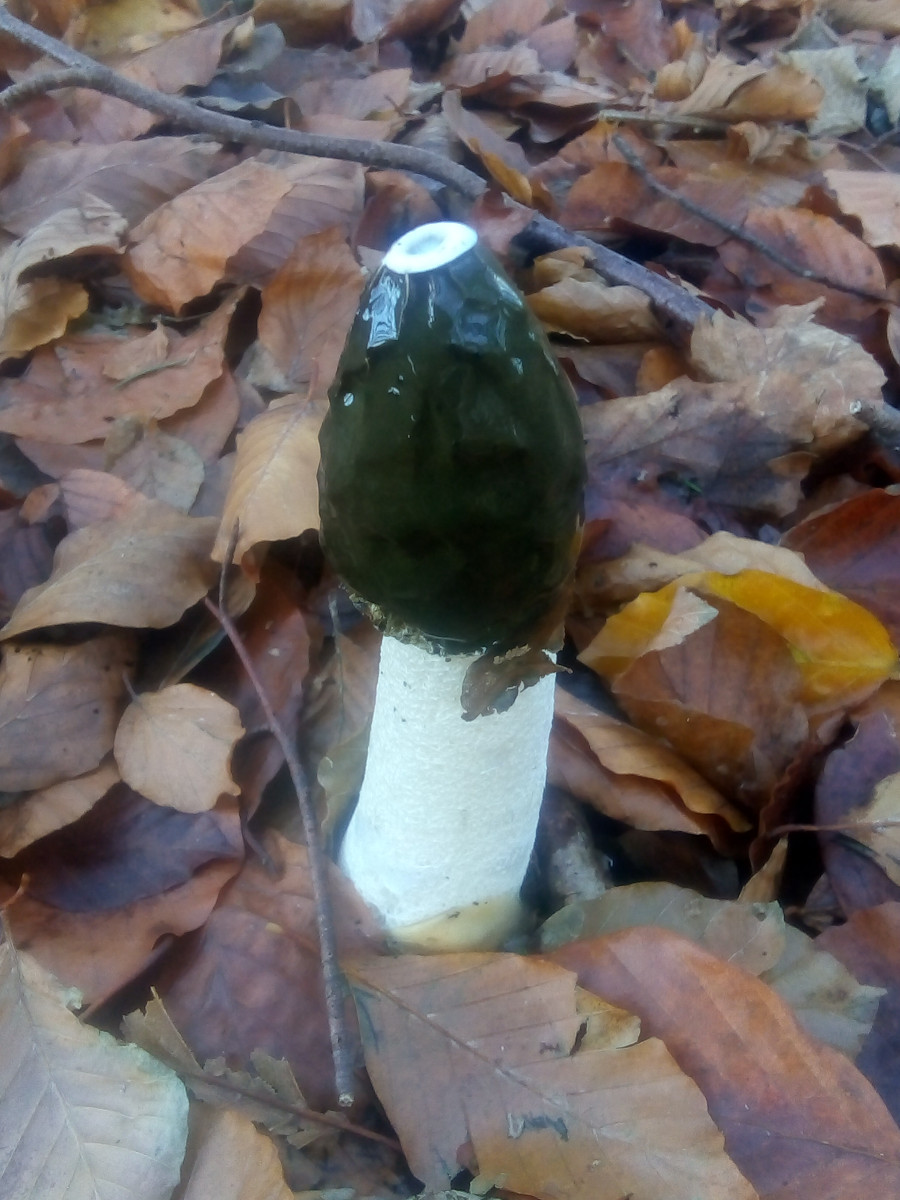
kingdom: Fungi
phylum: Basidiomycota
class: Agaricomycetes
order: Phallales
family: Phallaceae
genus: Phallus
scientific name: Phallus impudicus
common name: almindelig stinksvamp
